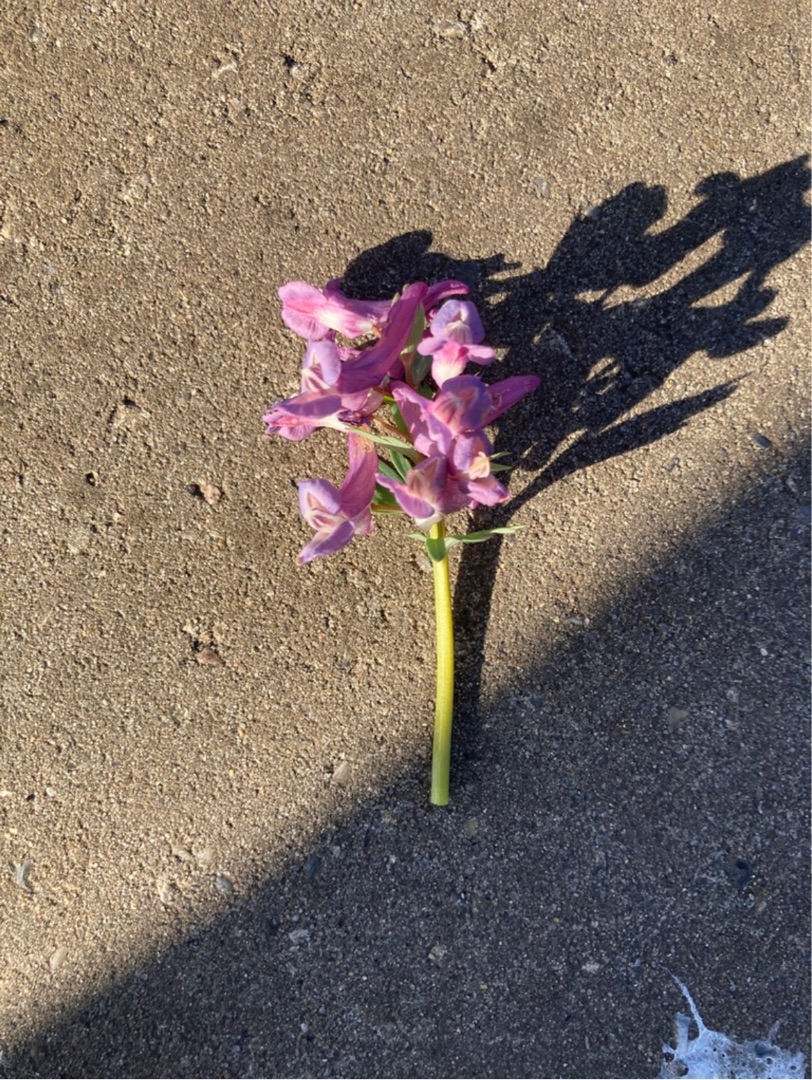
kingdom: Plantae
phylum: Tracheophyta
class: Magnoliopsida
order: Ranunculales
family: Papaveraceae
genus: Corydalis
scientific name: Corydalis solida
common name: Langstilket lærkespore
